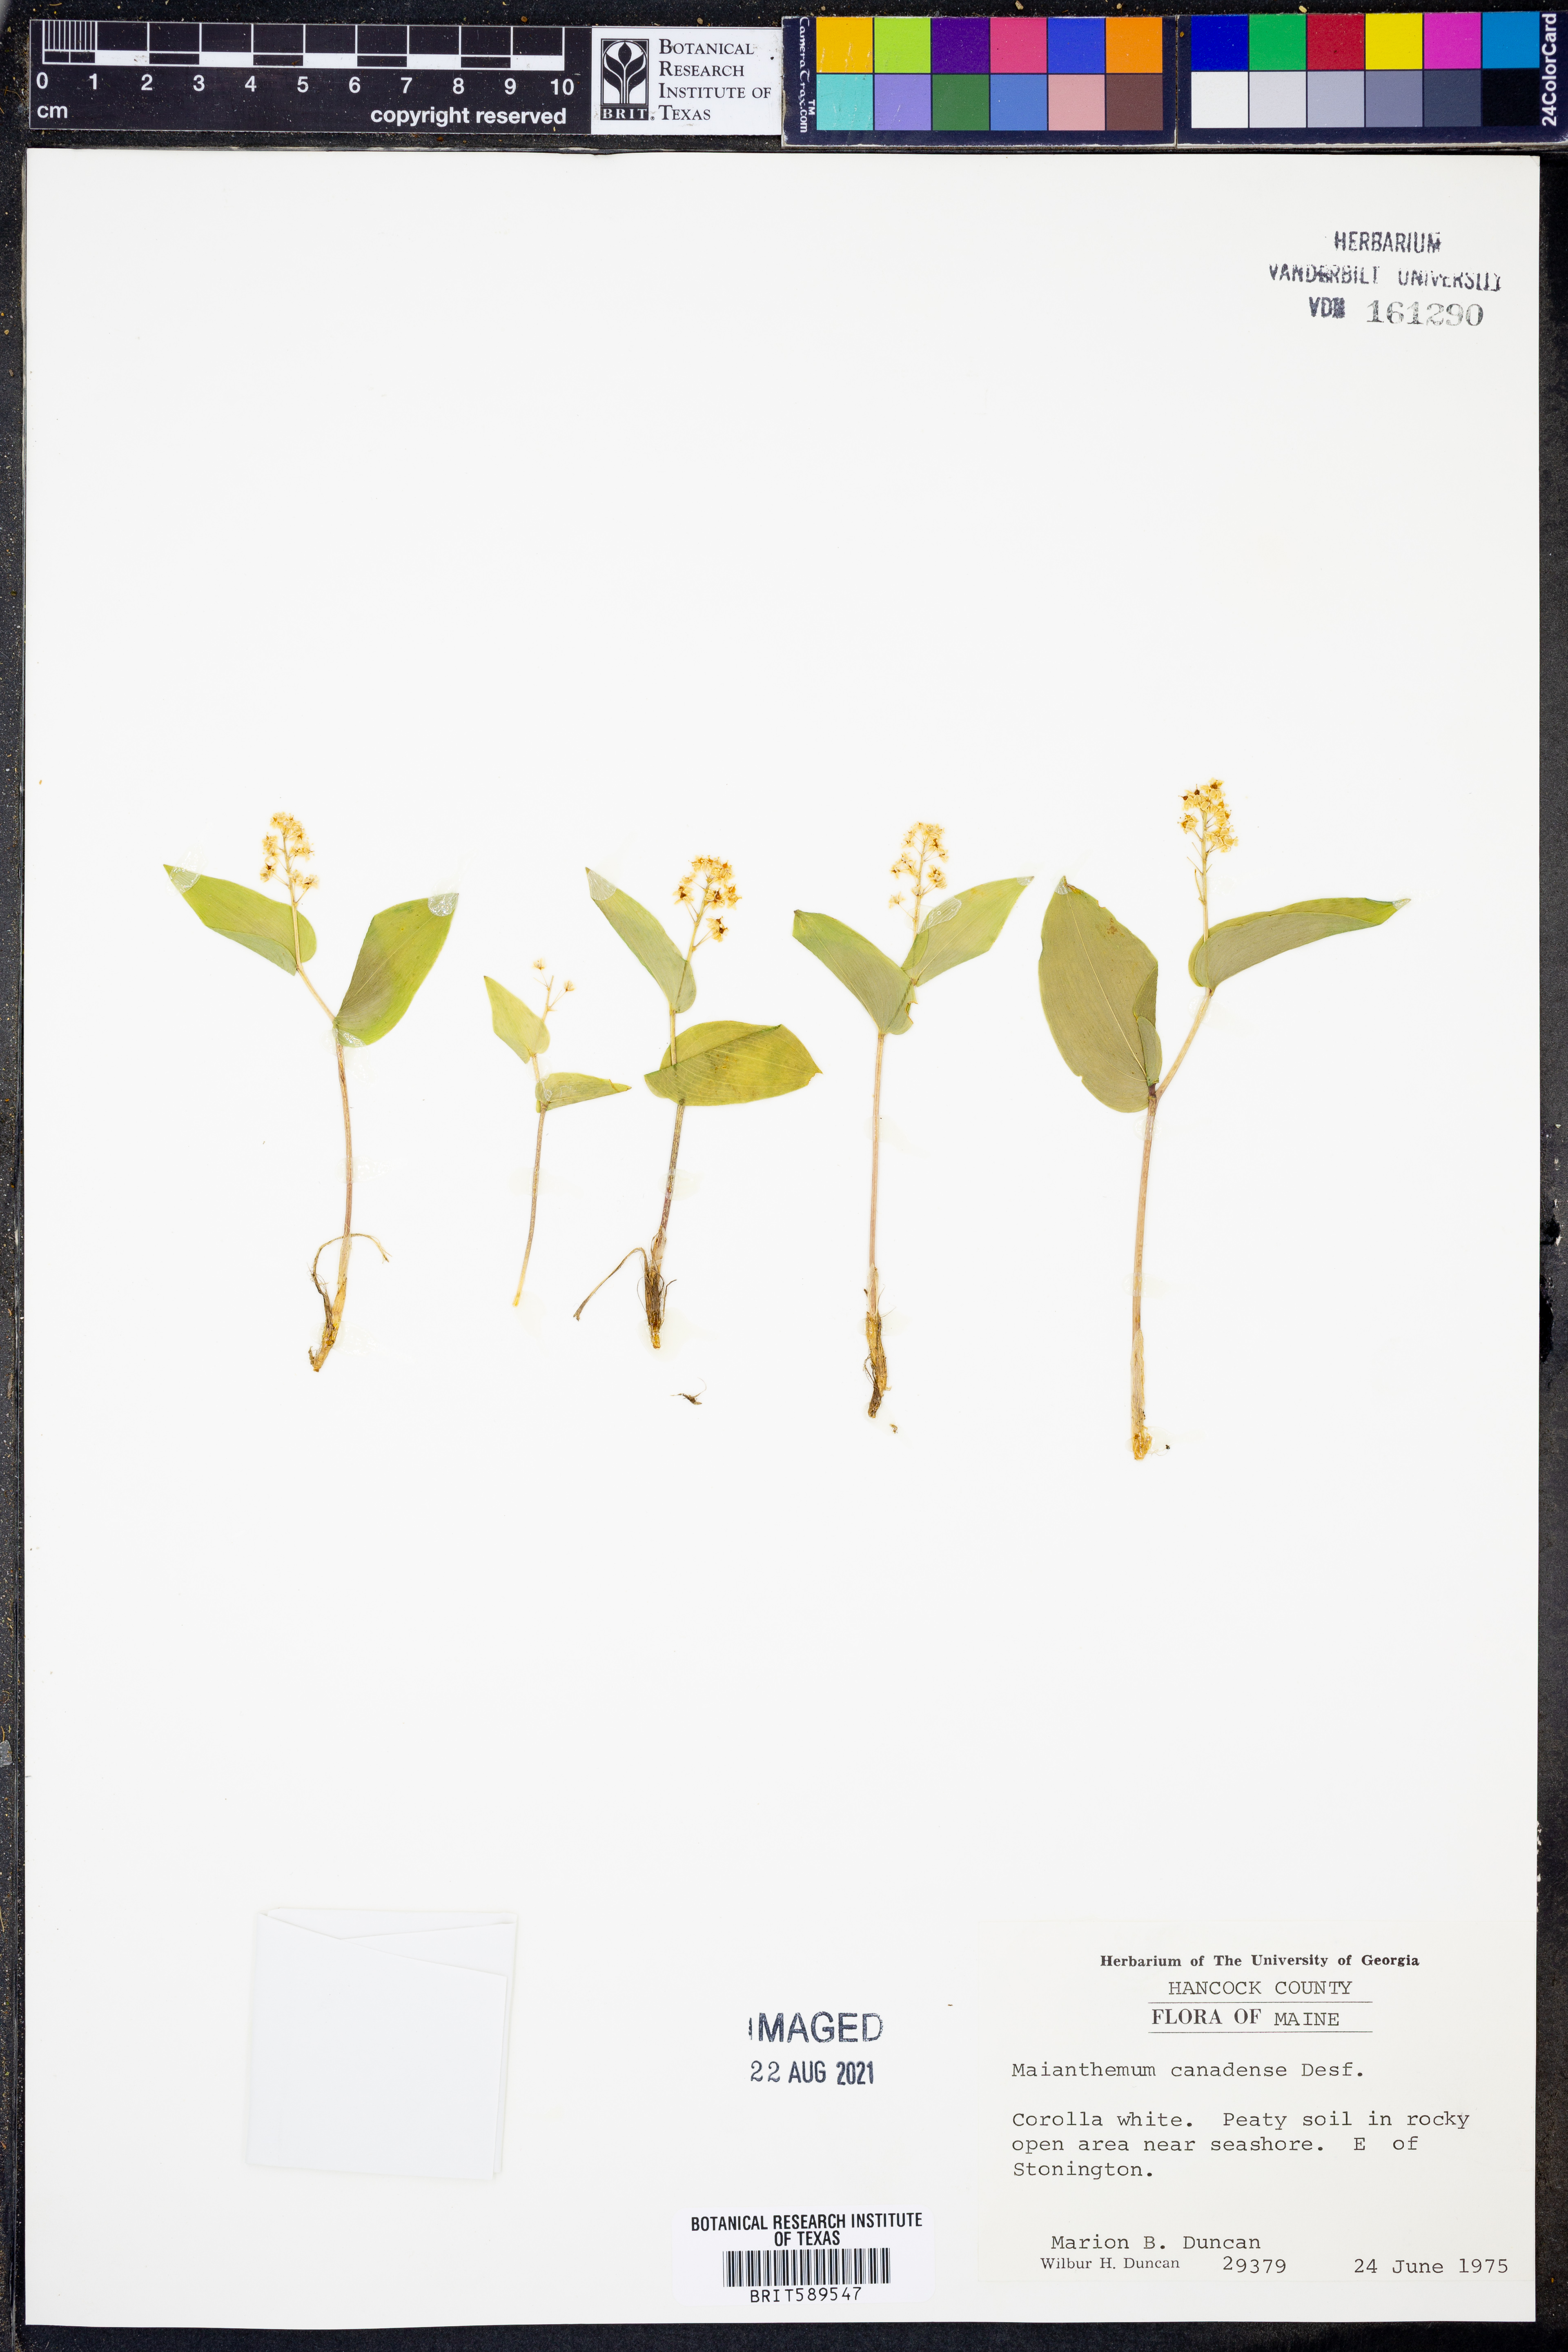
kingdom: Plantae
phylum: Tracheophyta
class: Liliopsida
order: Asparagales
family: Asparagaceae
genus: Maianthemum
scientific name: Maianthemum canadense
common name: False lily-of-the-valley
